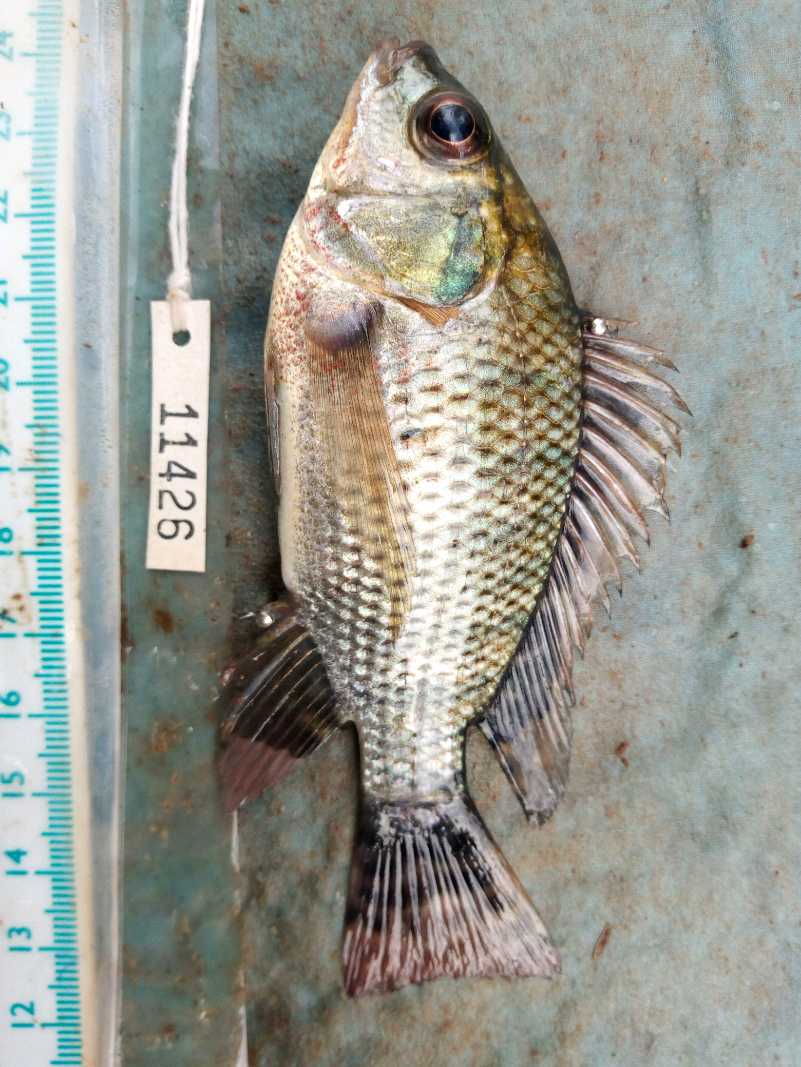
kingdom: Animalia
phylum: Chordata
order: Perciformes
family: Cichlidae
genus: Oreochromis
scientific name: Oreochromis niloticus
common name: Nile tilapia
